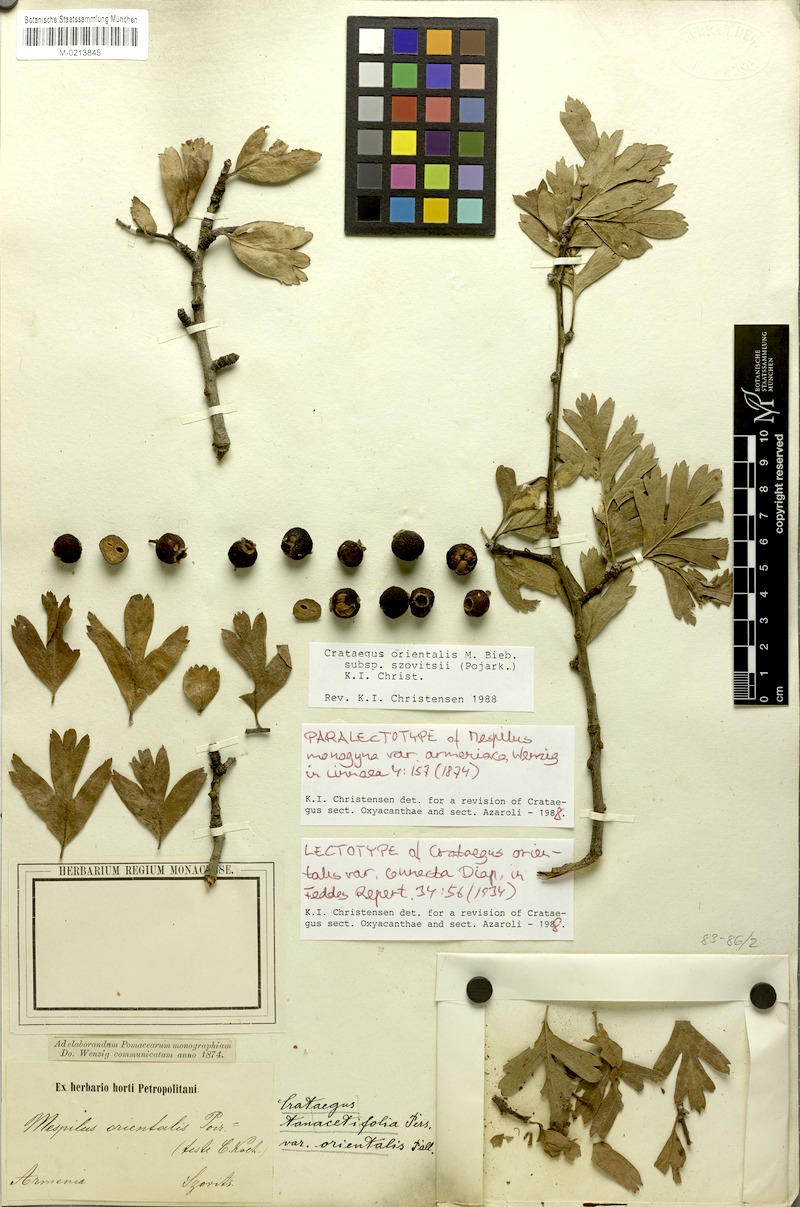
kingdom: Plantae
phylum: Tracheophyta
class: Magnoliopsida
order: Rosales
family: Rosaceae
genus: Crataegus
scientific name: Crataegus orientalis
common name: Oriental hawthorn
